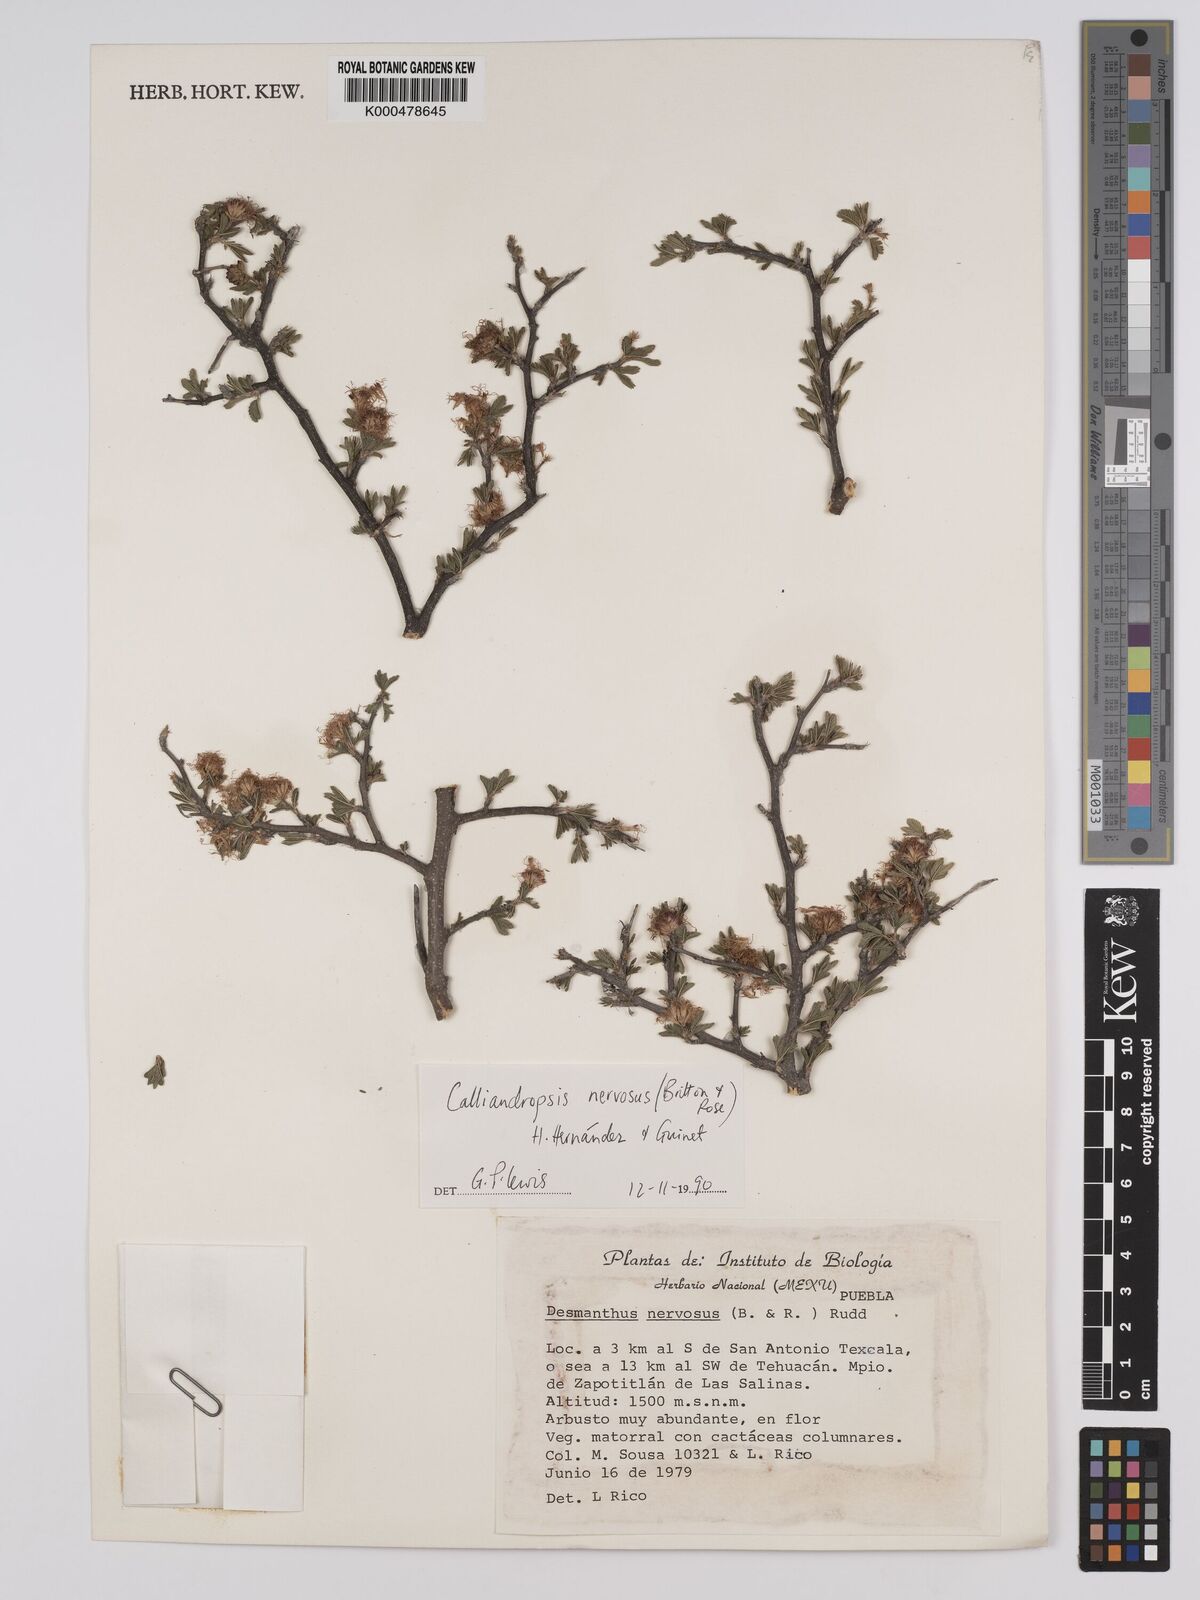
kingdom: Plantae
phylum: Tracheophyta
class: Magnoliopsida
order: Fabales
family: Fabaceae
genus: Calliandropsis
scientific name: Calliandropsis nervosa
